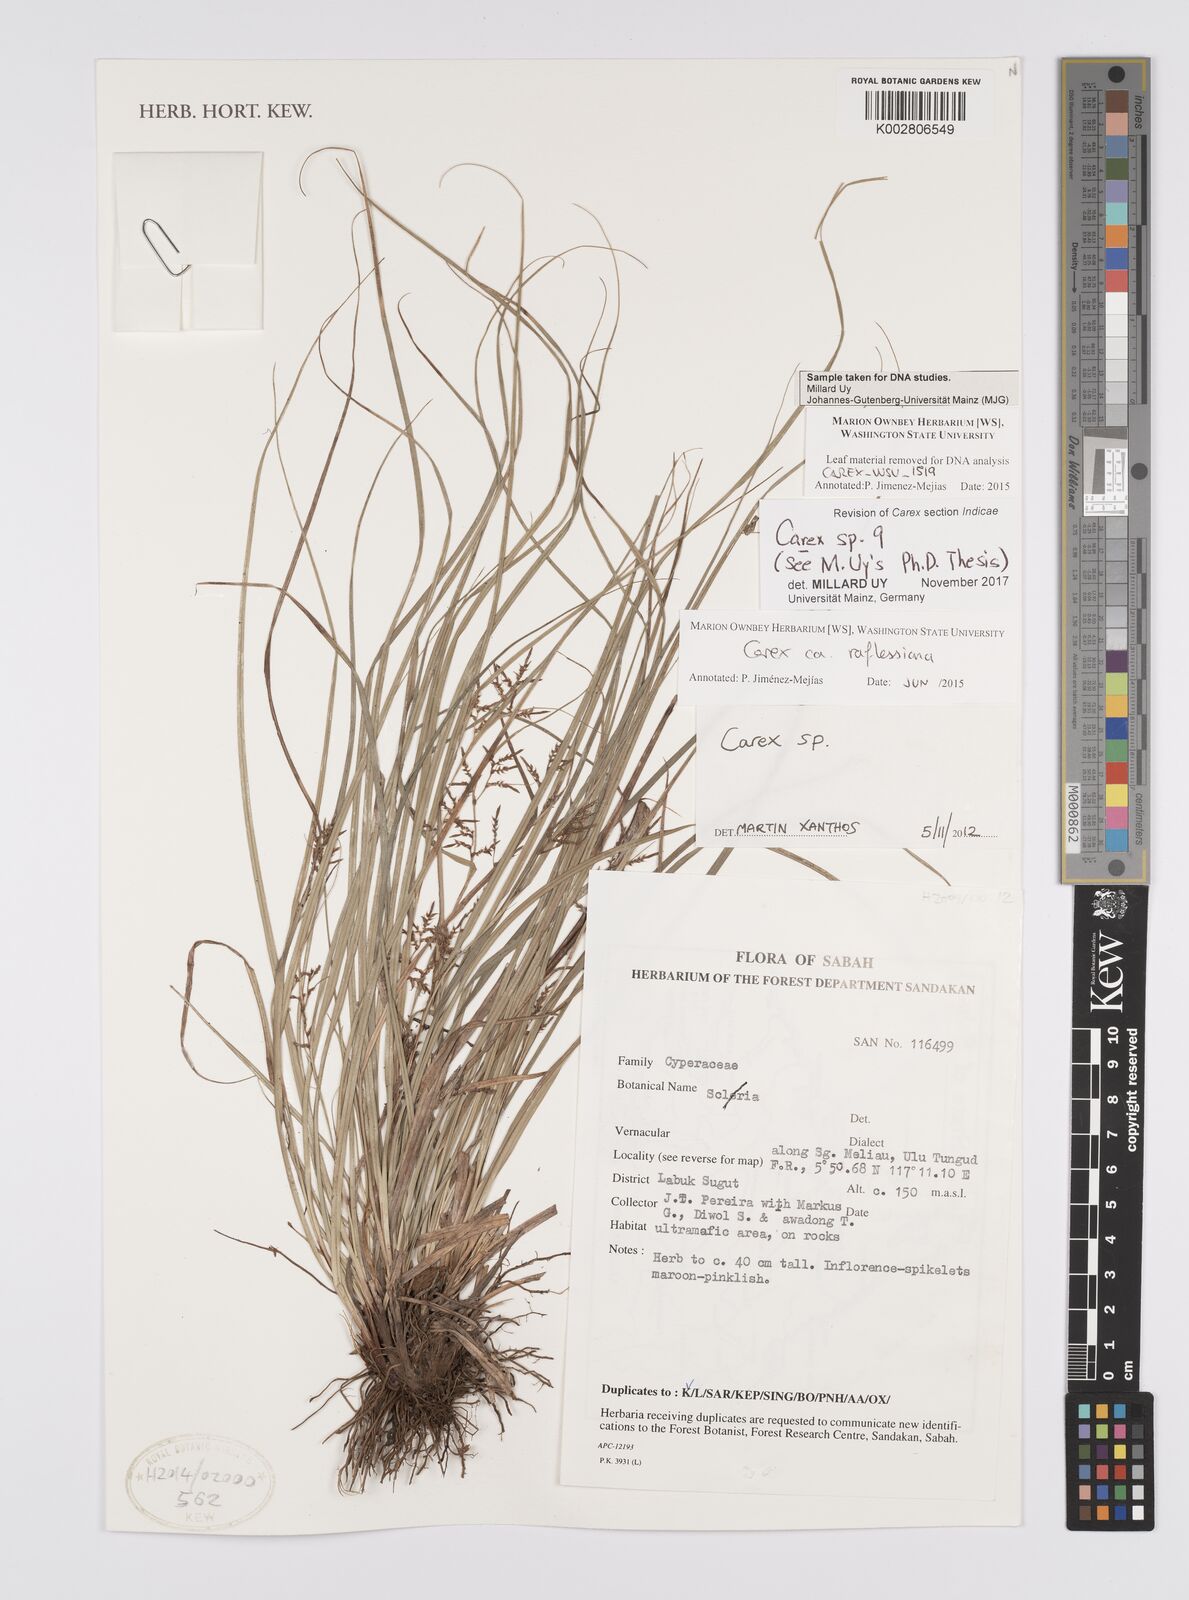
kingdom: Plantae
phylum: Tracheophyta
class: Liliopsida
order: Poales
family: Cyperaceae
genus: Carex
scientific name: Carex
